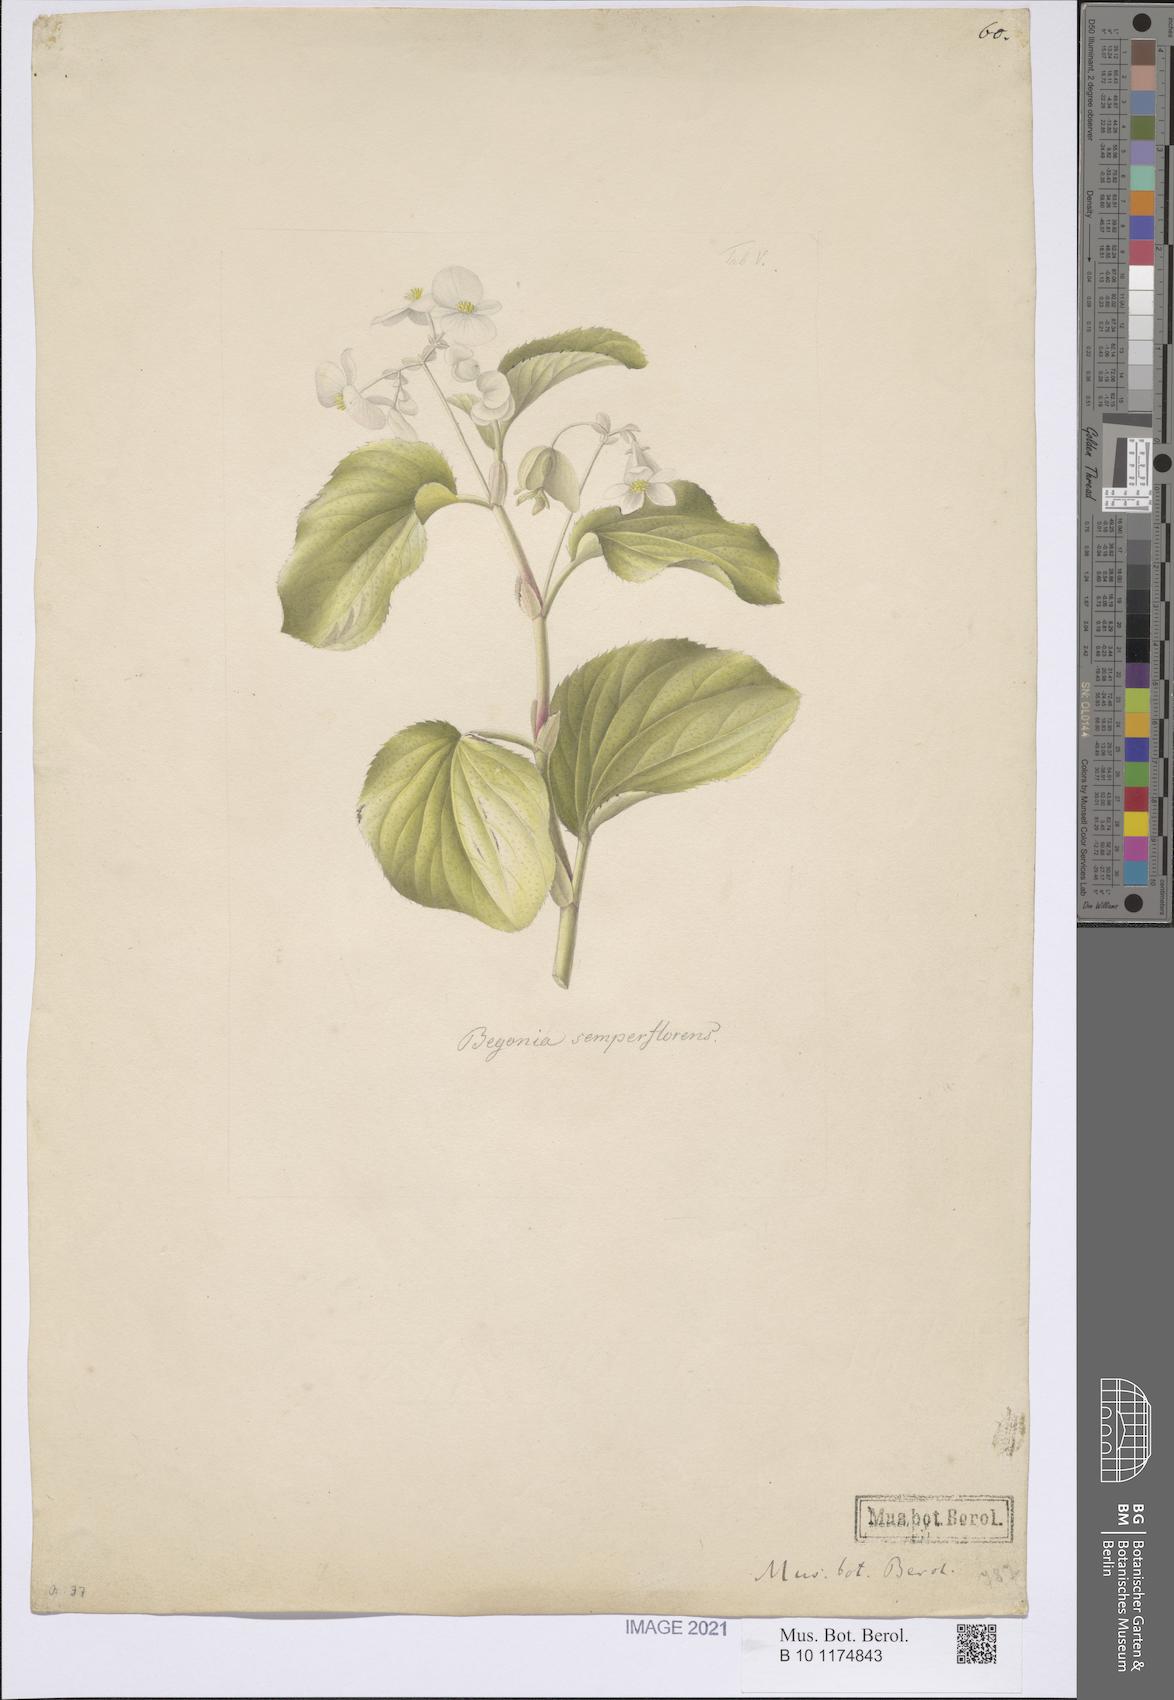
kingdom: Plantae
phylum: Tracheophyta
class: Magnoliopsida
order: Cucurbitales
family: Begoniaceae
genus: Begonia
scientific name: Begonia cucullata
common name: Clubbed begonia
